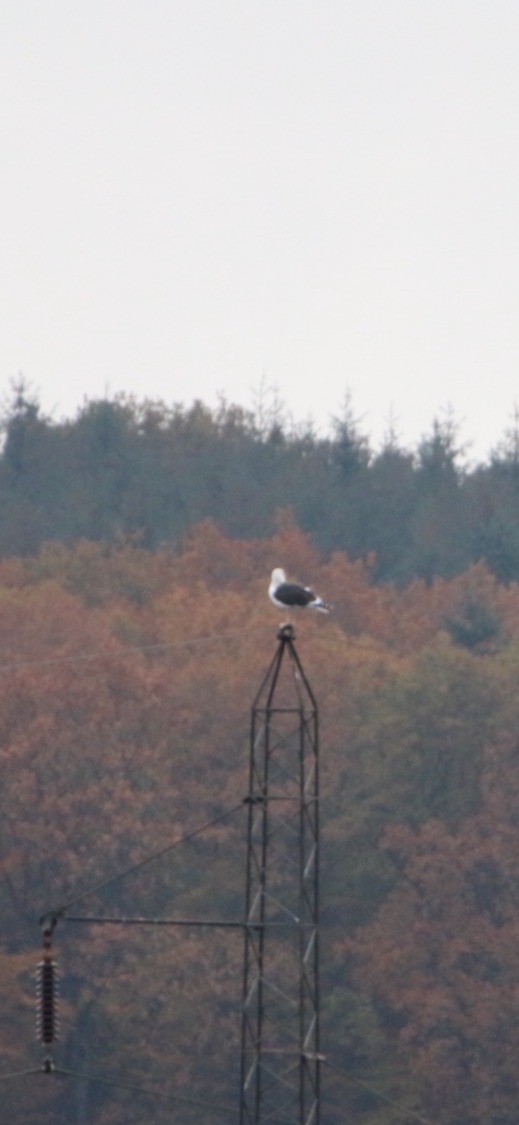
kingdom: Animalia
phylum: Chordata
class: Aves
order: Charadriiformes
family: Laridae
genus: Larus
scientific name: Larus marinus
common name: Svartbag
